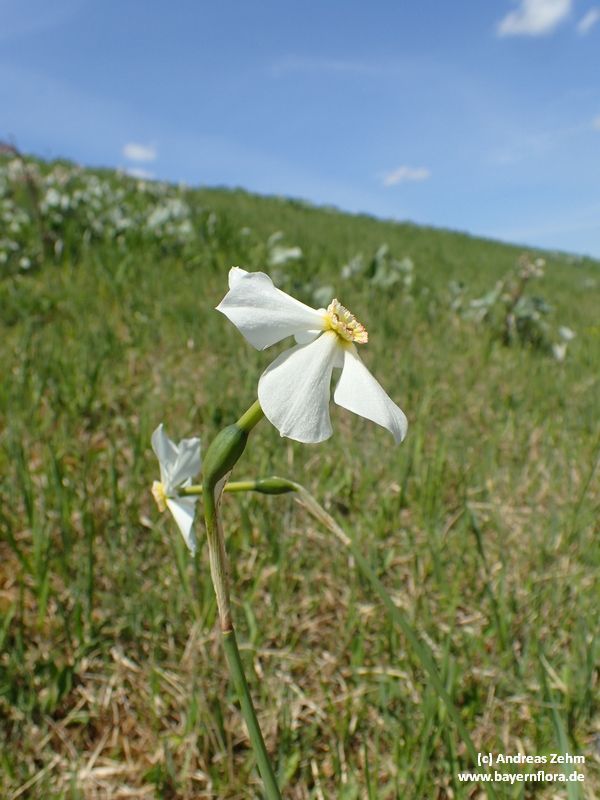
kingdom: Plantae
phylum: Tracheophyta
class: Liliopsida
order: Asparagales
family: Amaryllidaceae
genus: Narcissus
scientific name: Narcissus
